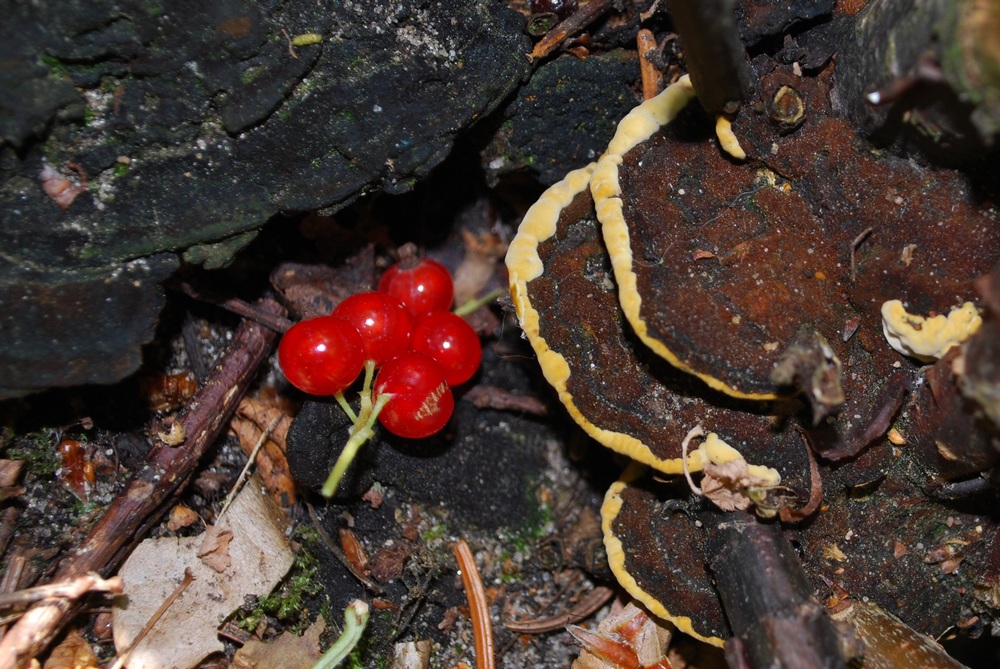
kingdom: Fungi
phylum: Basidiomycota
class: Agaricomycetes
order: Hymenochaetales
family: Hymenochaetaceae
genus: Phylloporia
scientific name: Phylloporia ribis
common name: ribs-ildporesvamp
